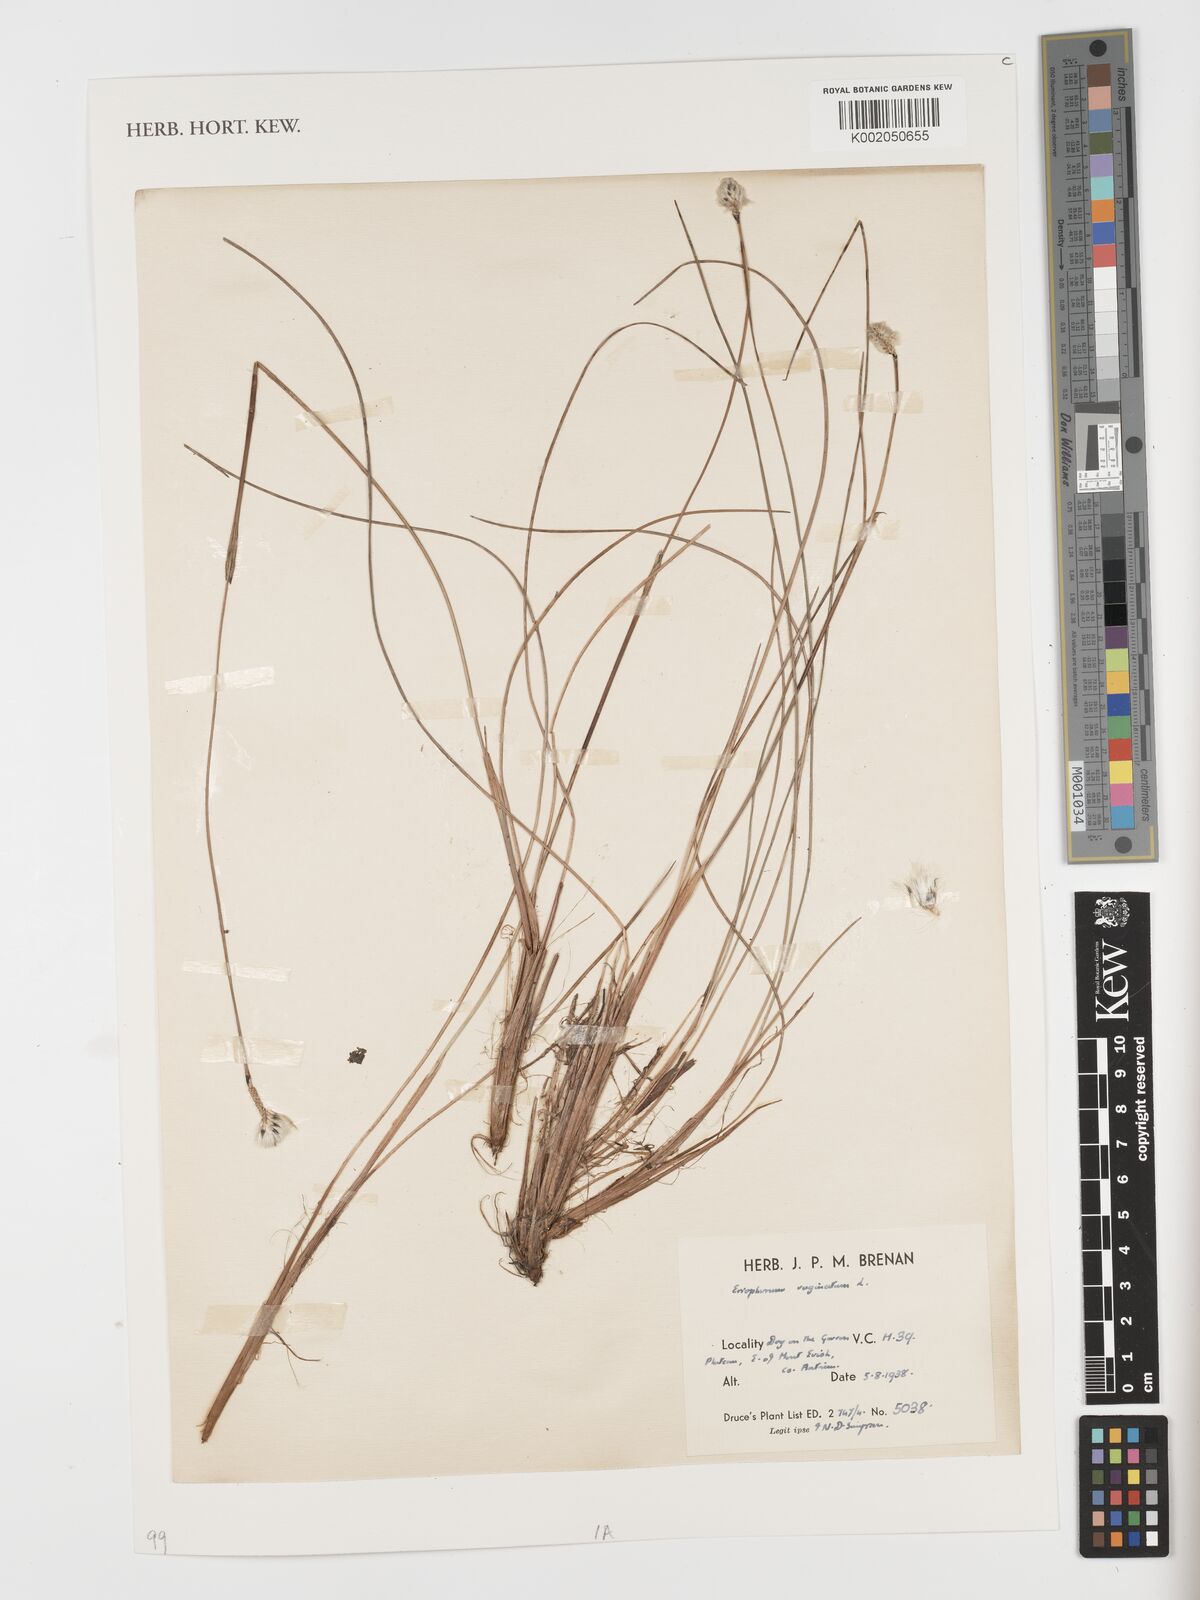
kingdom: Plantae
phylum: Tracheophyta
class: Liliopsida
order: Poales
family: Cyperaceae
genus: Eriophorum
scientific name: Eriophorum vaginatum
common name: Hare's-tail cottongrass
